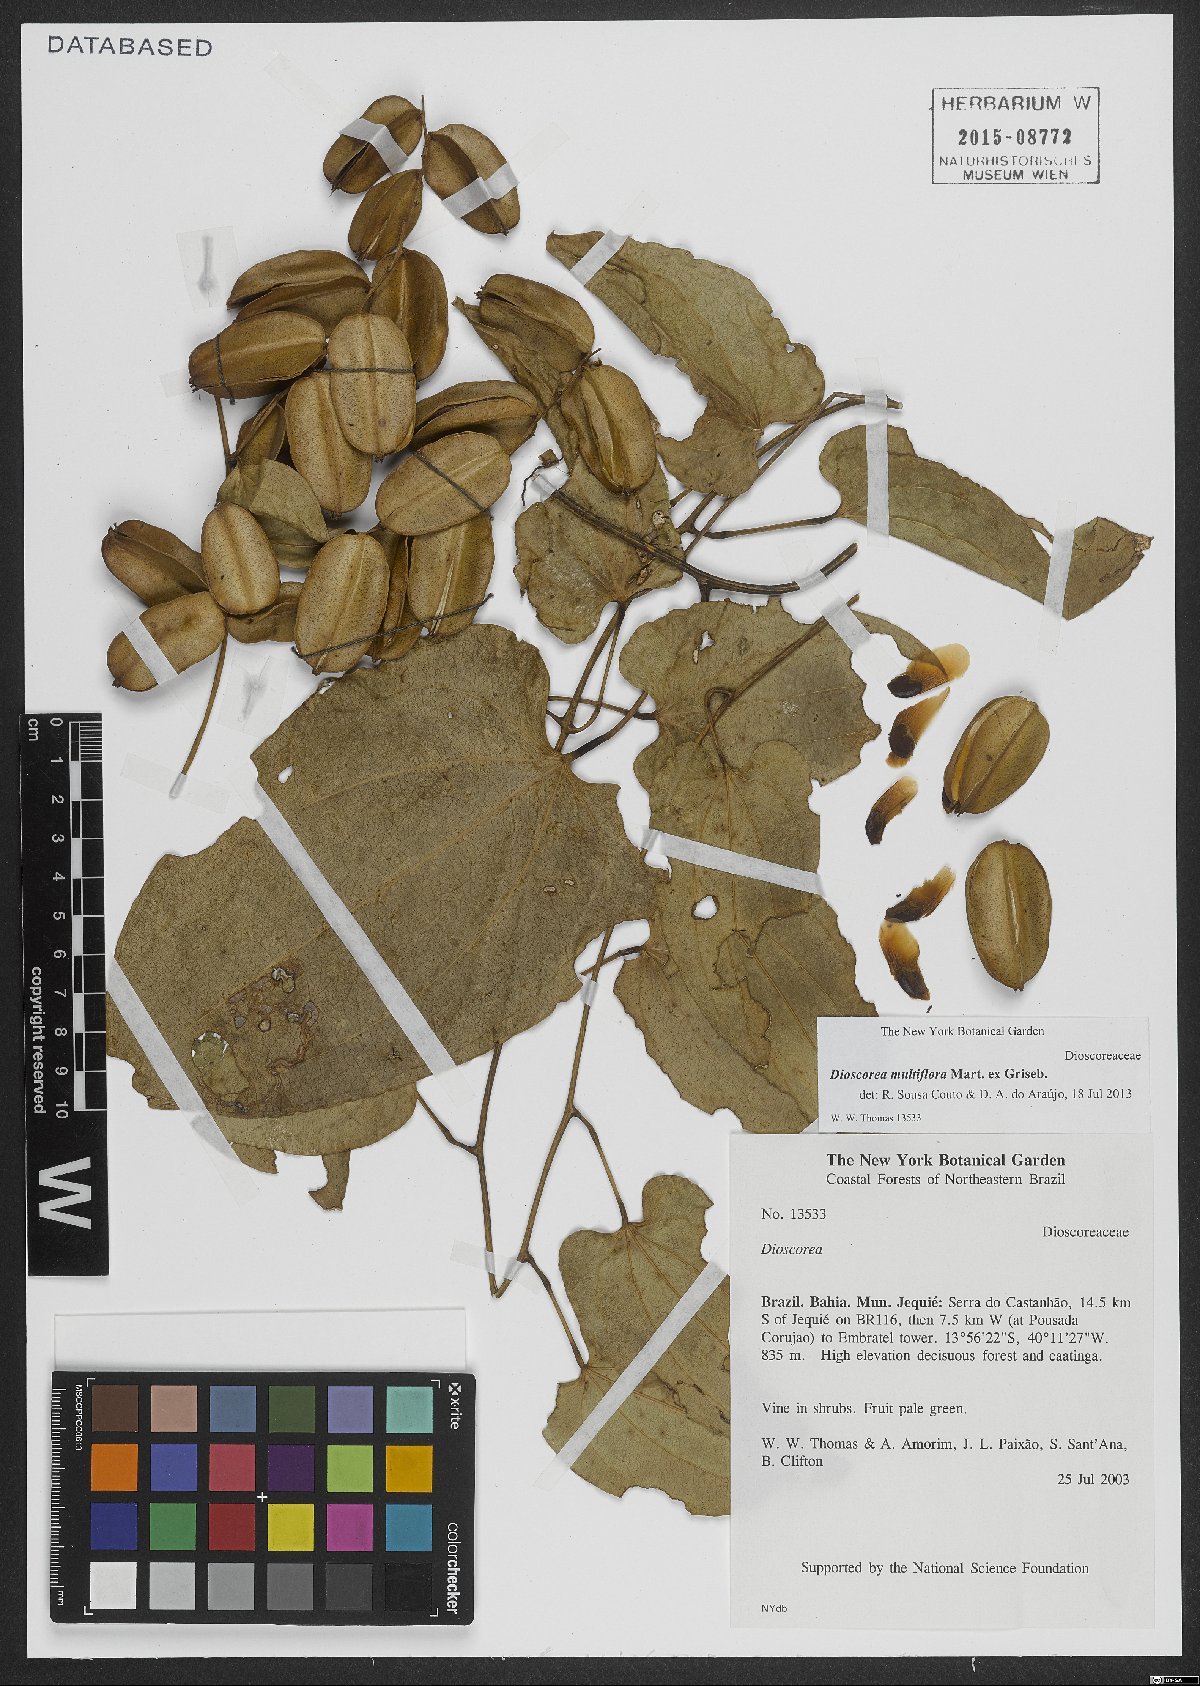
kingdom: Plantae
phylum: Tracheophyta
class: Liliopsida
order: Dioscoreales
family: Dioscoreaceae
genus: Dioscorea
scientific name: Dioscorea polygonoides
